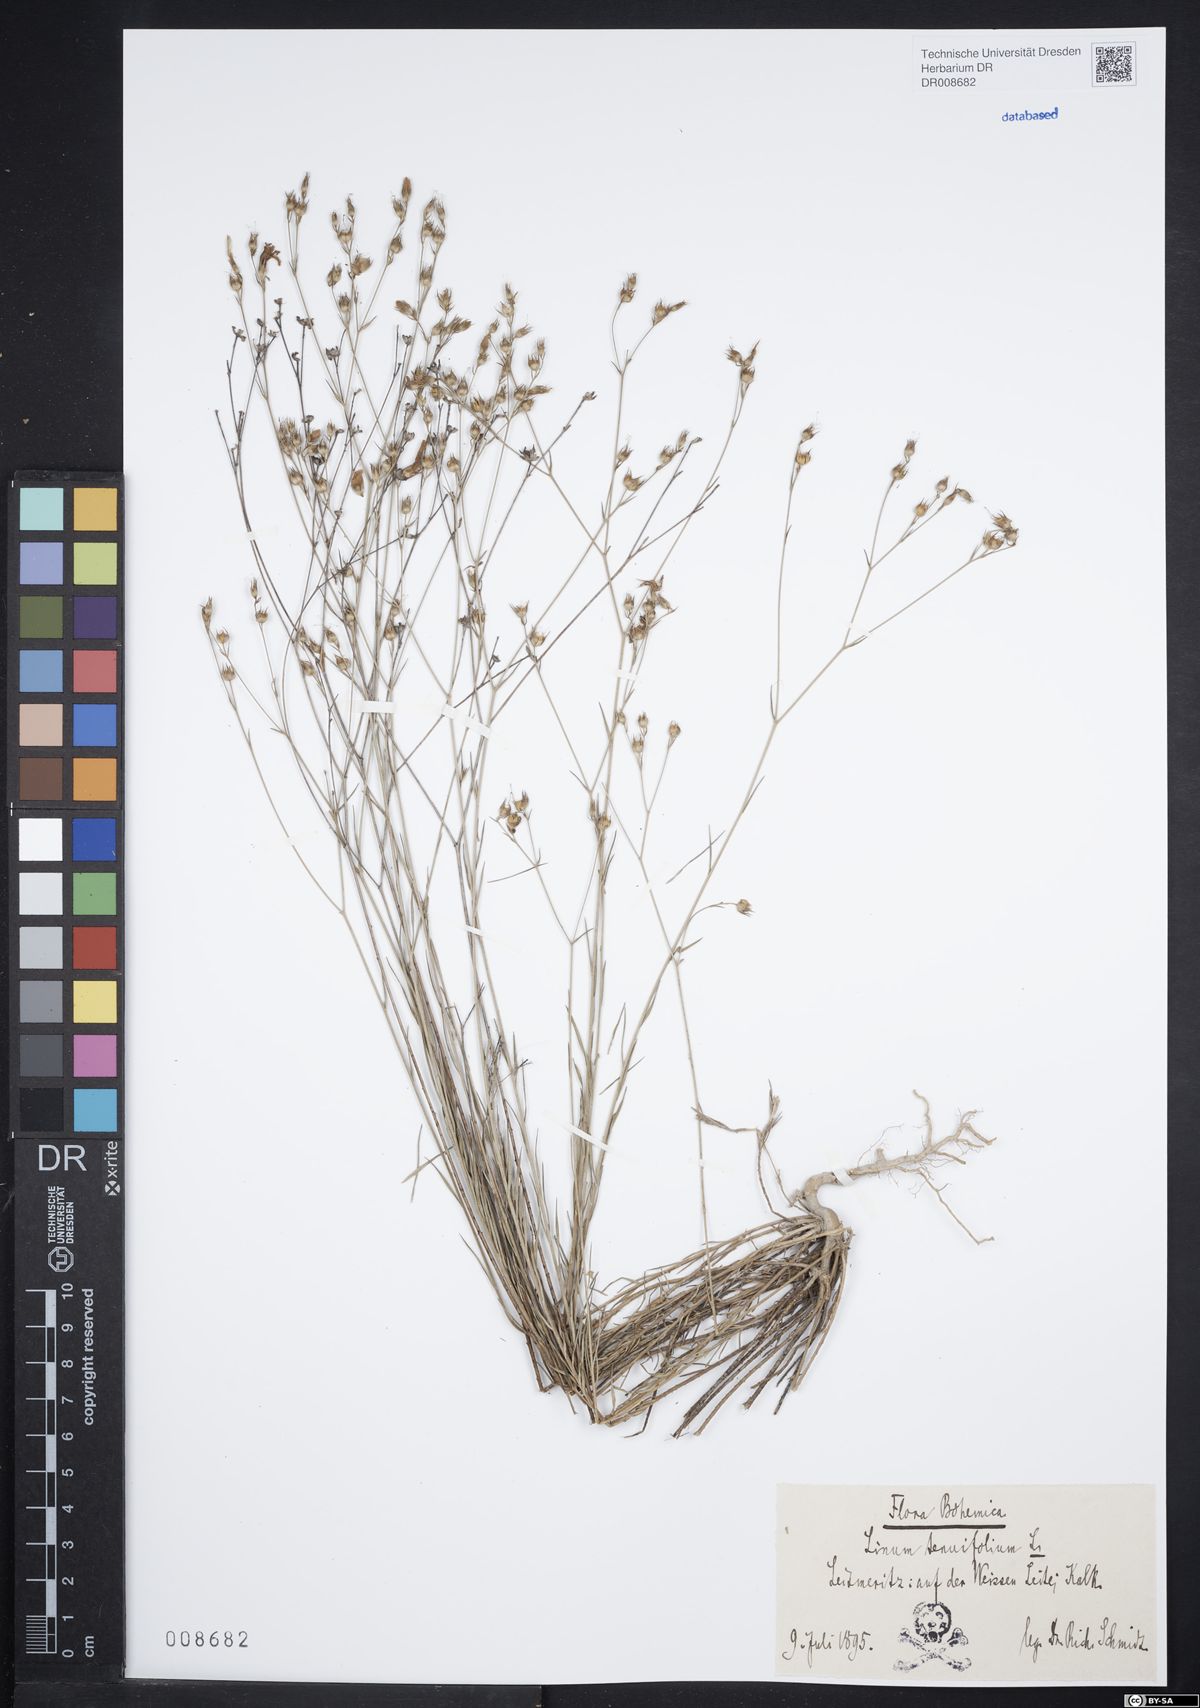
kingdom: Plantae
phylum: Tracheophyta
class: Magnoliopsida
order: Malpighiales
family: Linaceae
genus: Linum
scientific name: Linum tenuifolium
